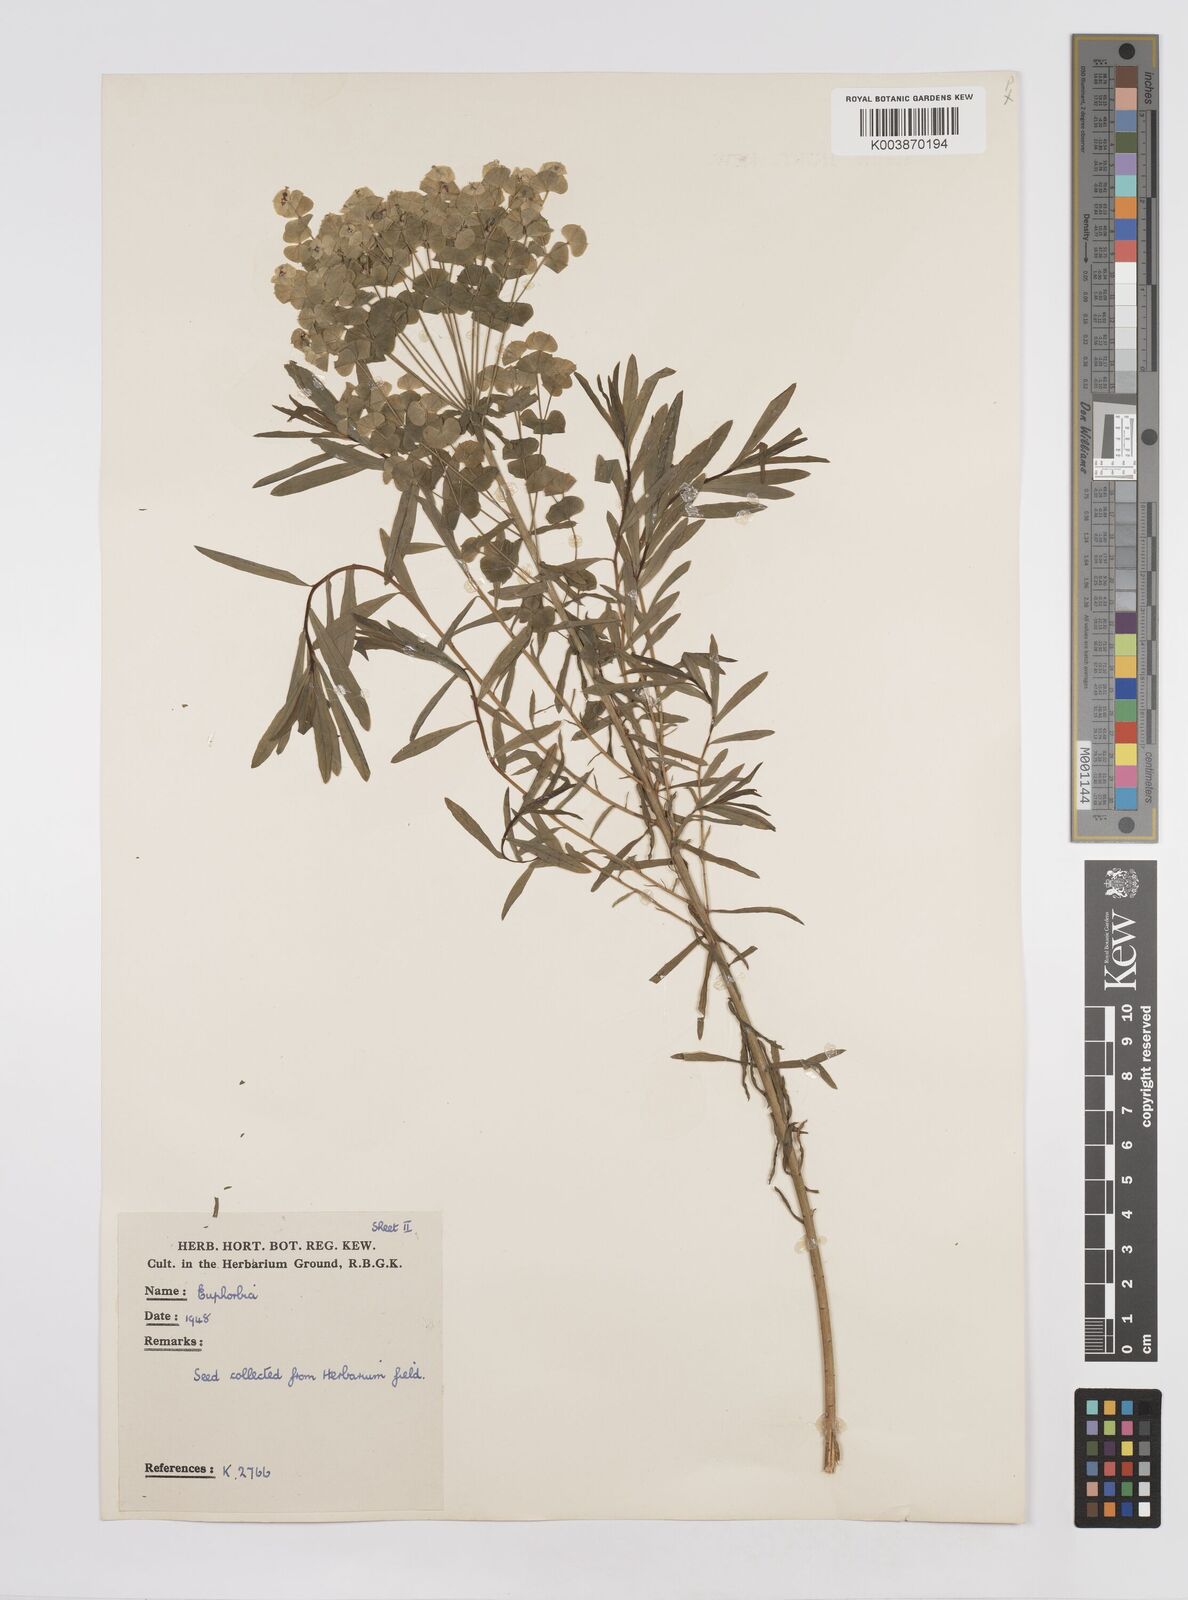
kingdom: Plantae
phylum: Tracheophyta
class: Magnoliopsida
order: Malpighiales
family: Euphorbiaceae
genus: Euphorbia
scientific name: Euphorbia virgata
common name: Leafy spurge
